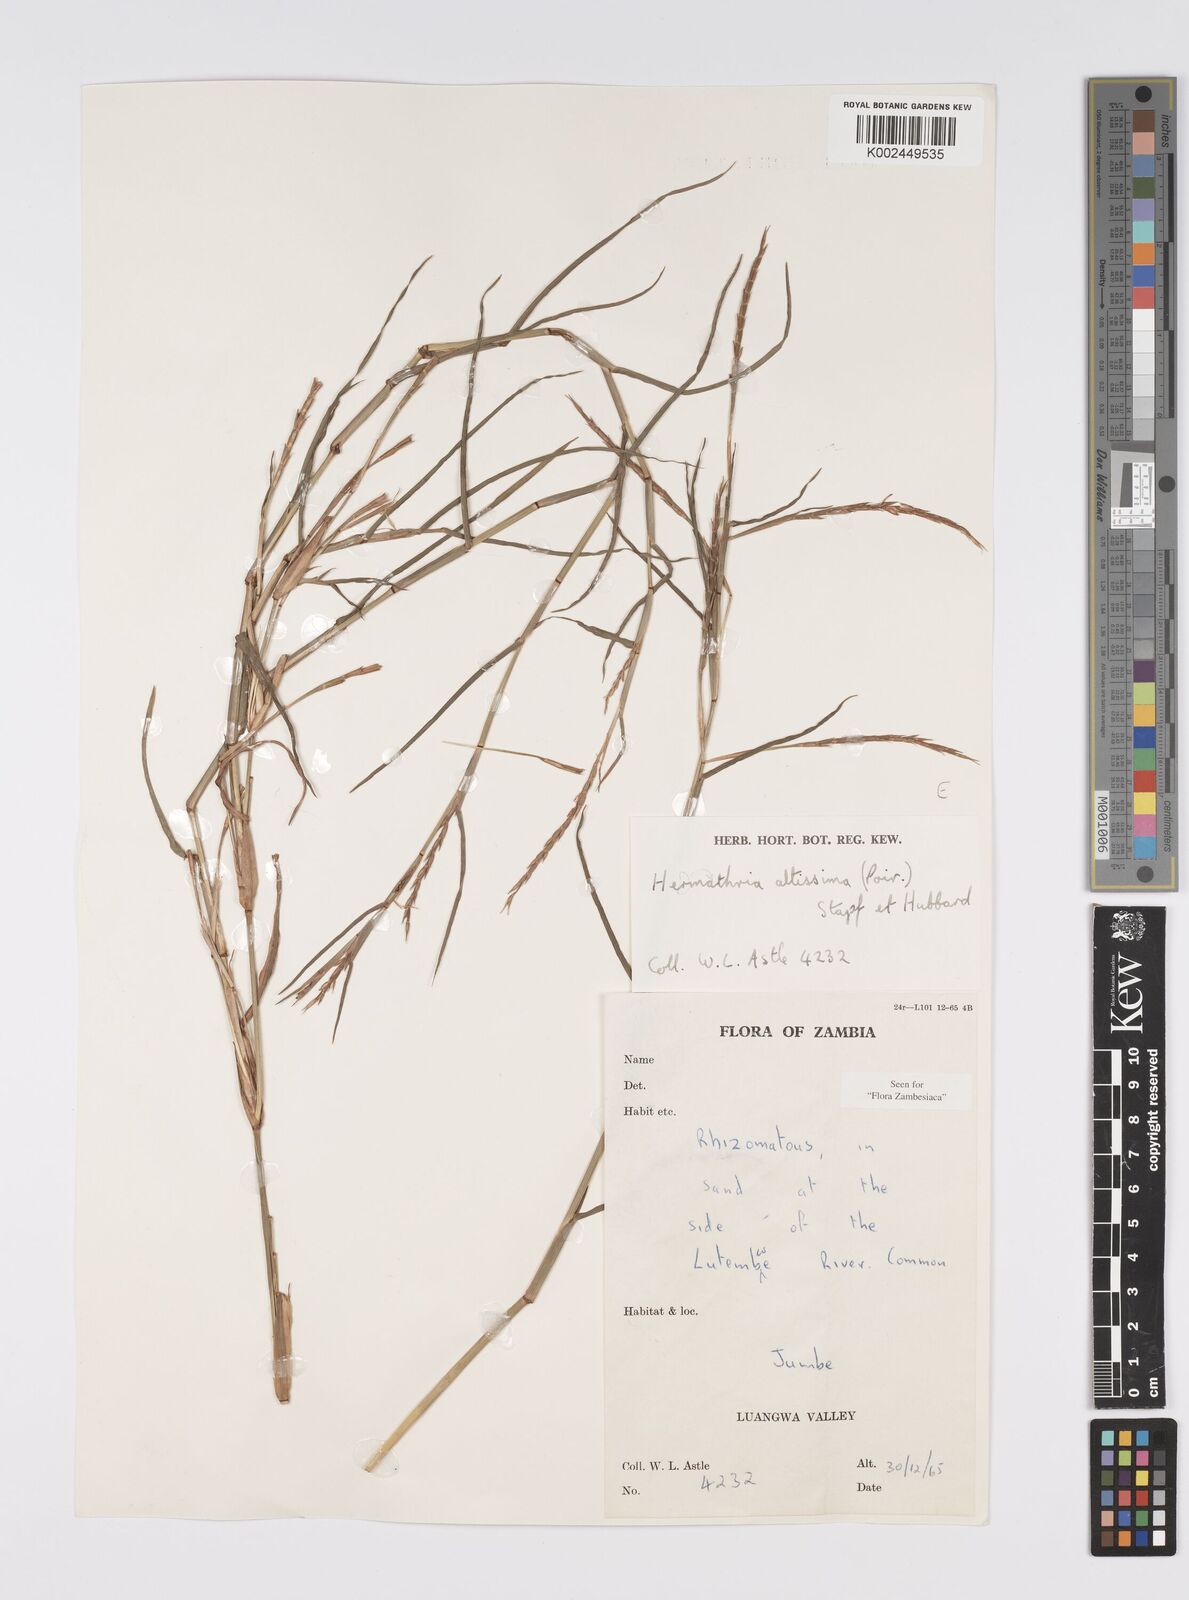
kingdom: Plantae
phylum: Tracheophyta
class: Liliopsida
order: Poales
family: Poaceae
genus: Hemarthria
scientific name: Hemarthria altissima
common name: African jointgrass
